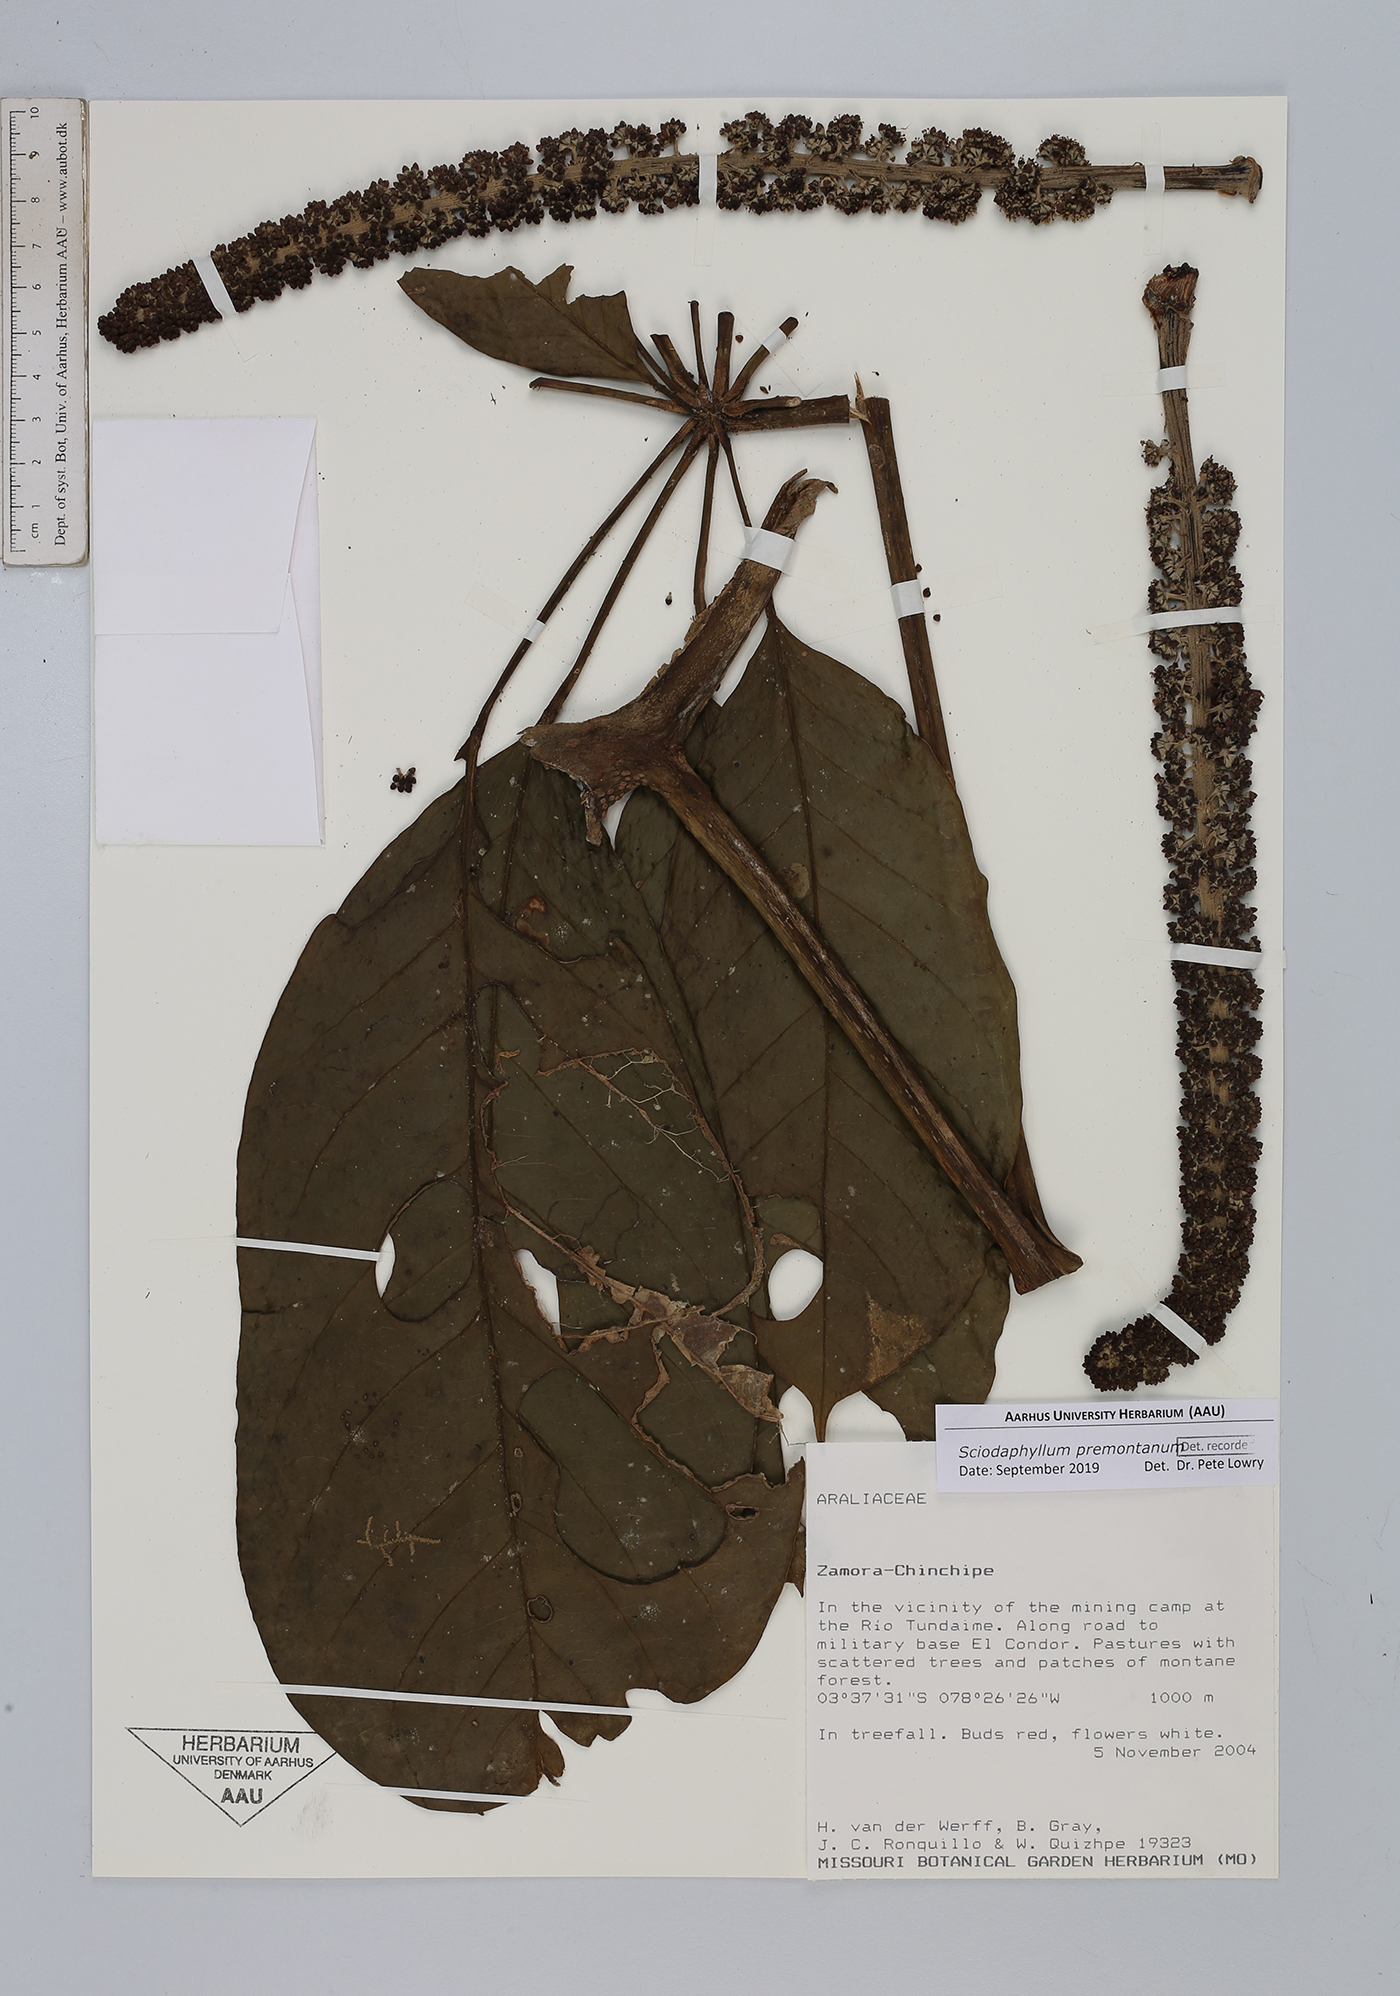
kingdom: Plantae
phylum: Tracheophyta
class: Magnoliopsida
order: Apiales
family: Araliaceae
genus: Sciodaphyllum
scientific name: Sciodaphyllum
